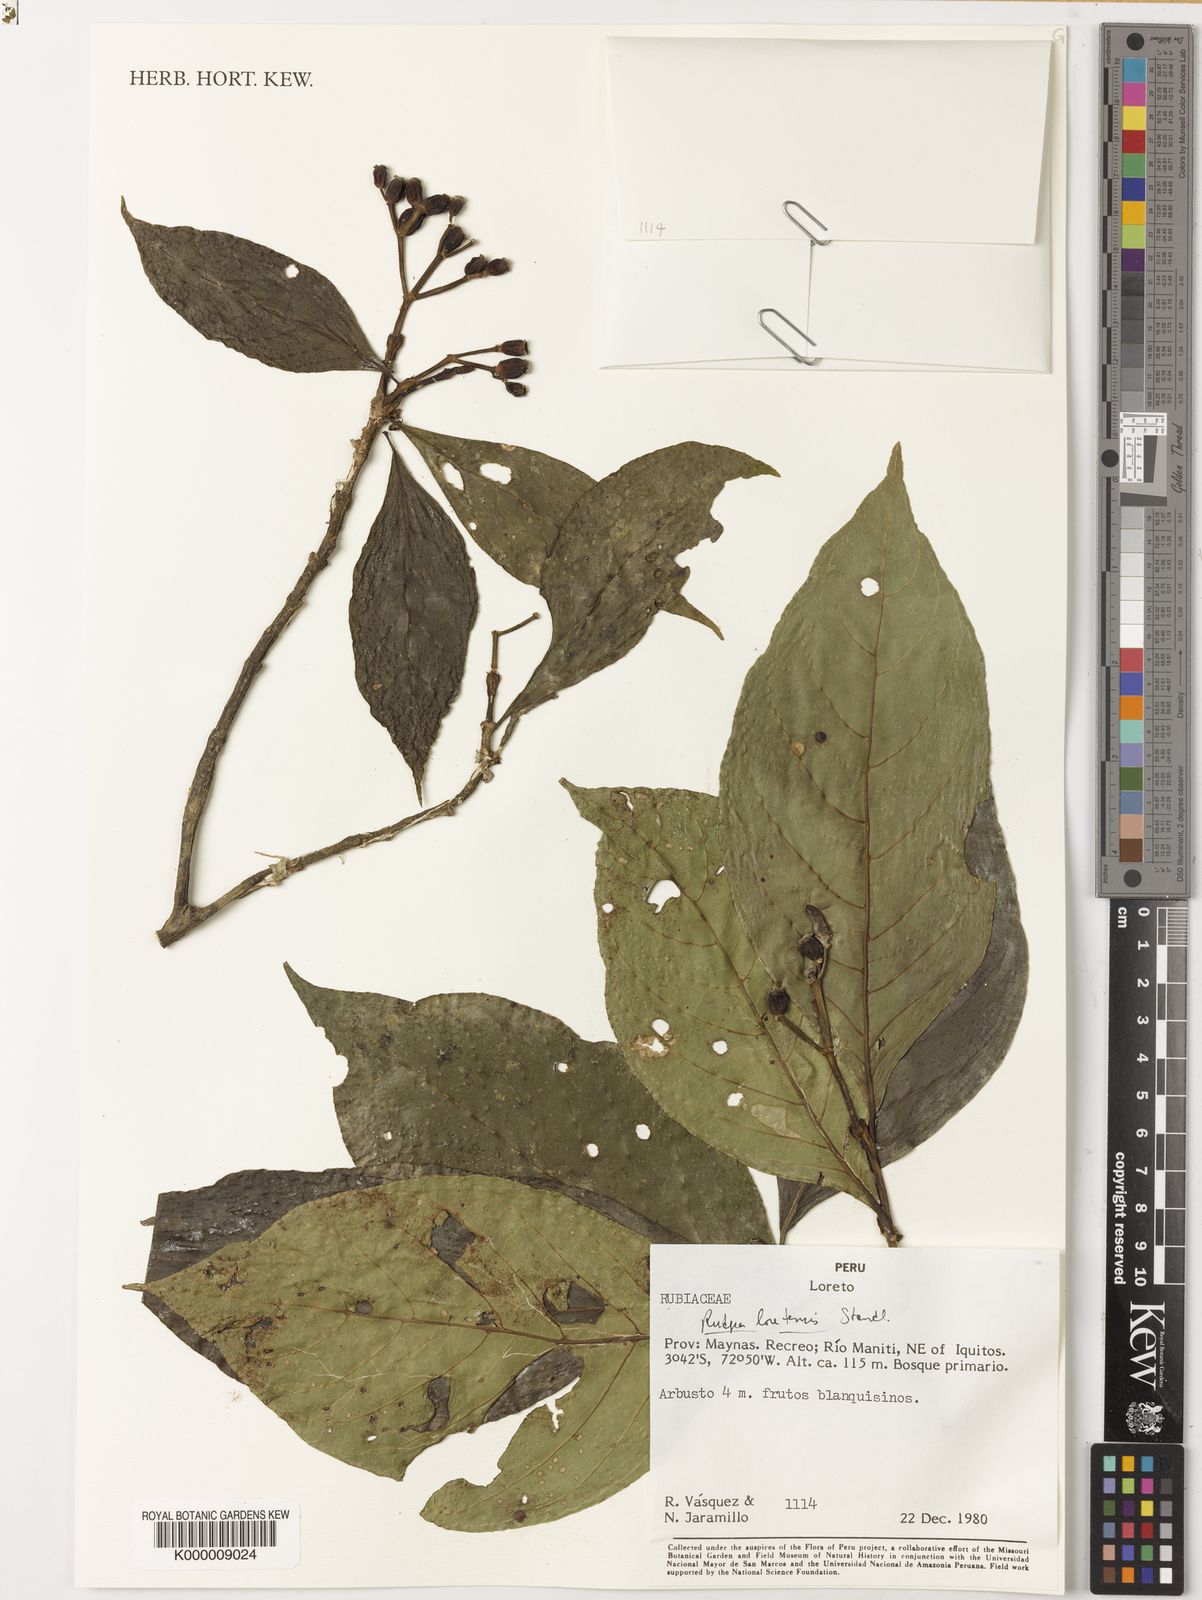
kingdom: Plantae
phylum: Tracheophyta
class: Magnoliopsida
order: Gentianales
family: Rubiaceae
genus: Rudgea
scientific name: Rudgea loretensis
